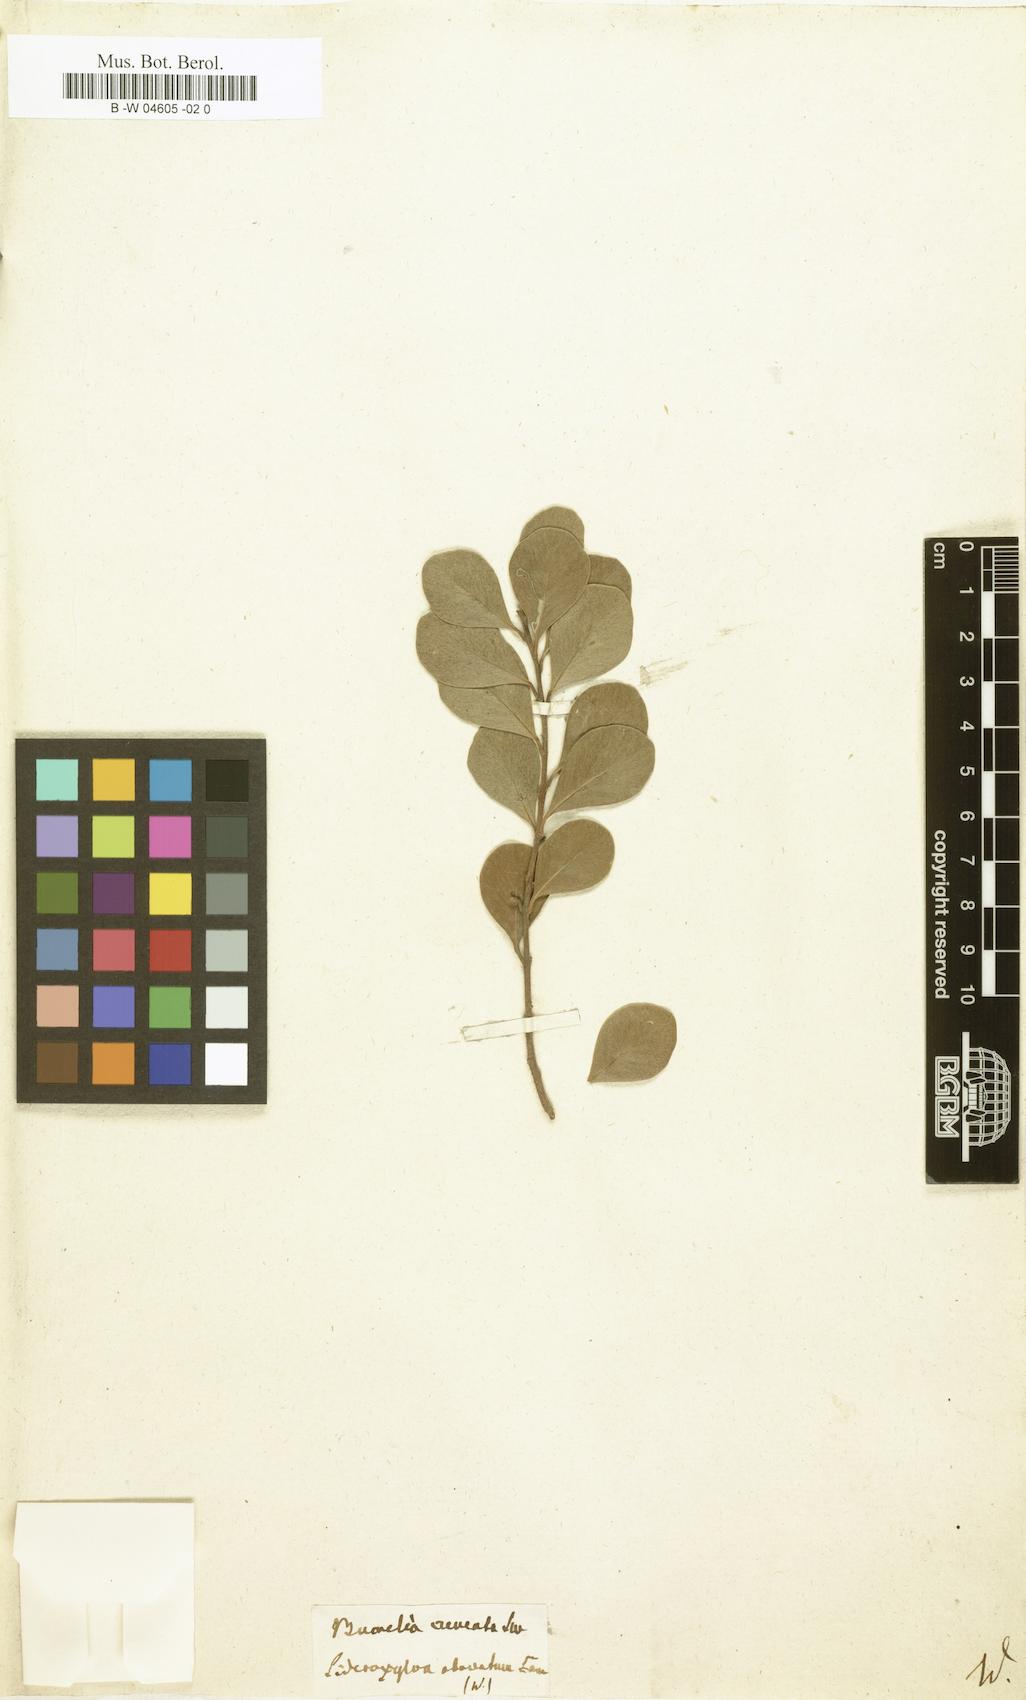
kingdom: Plantae
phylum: Tracheophyta
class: Magnoliopsida
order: Ericales
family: Sapotaceae
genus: Sideroxylon
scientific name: Sideroxylon obovatum
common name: Breakbill
